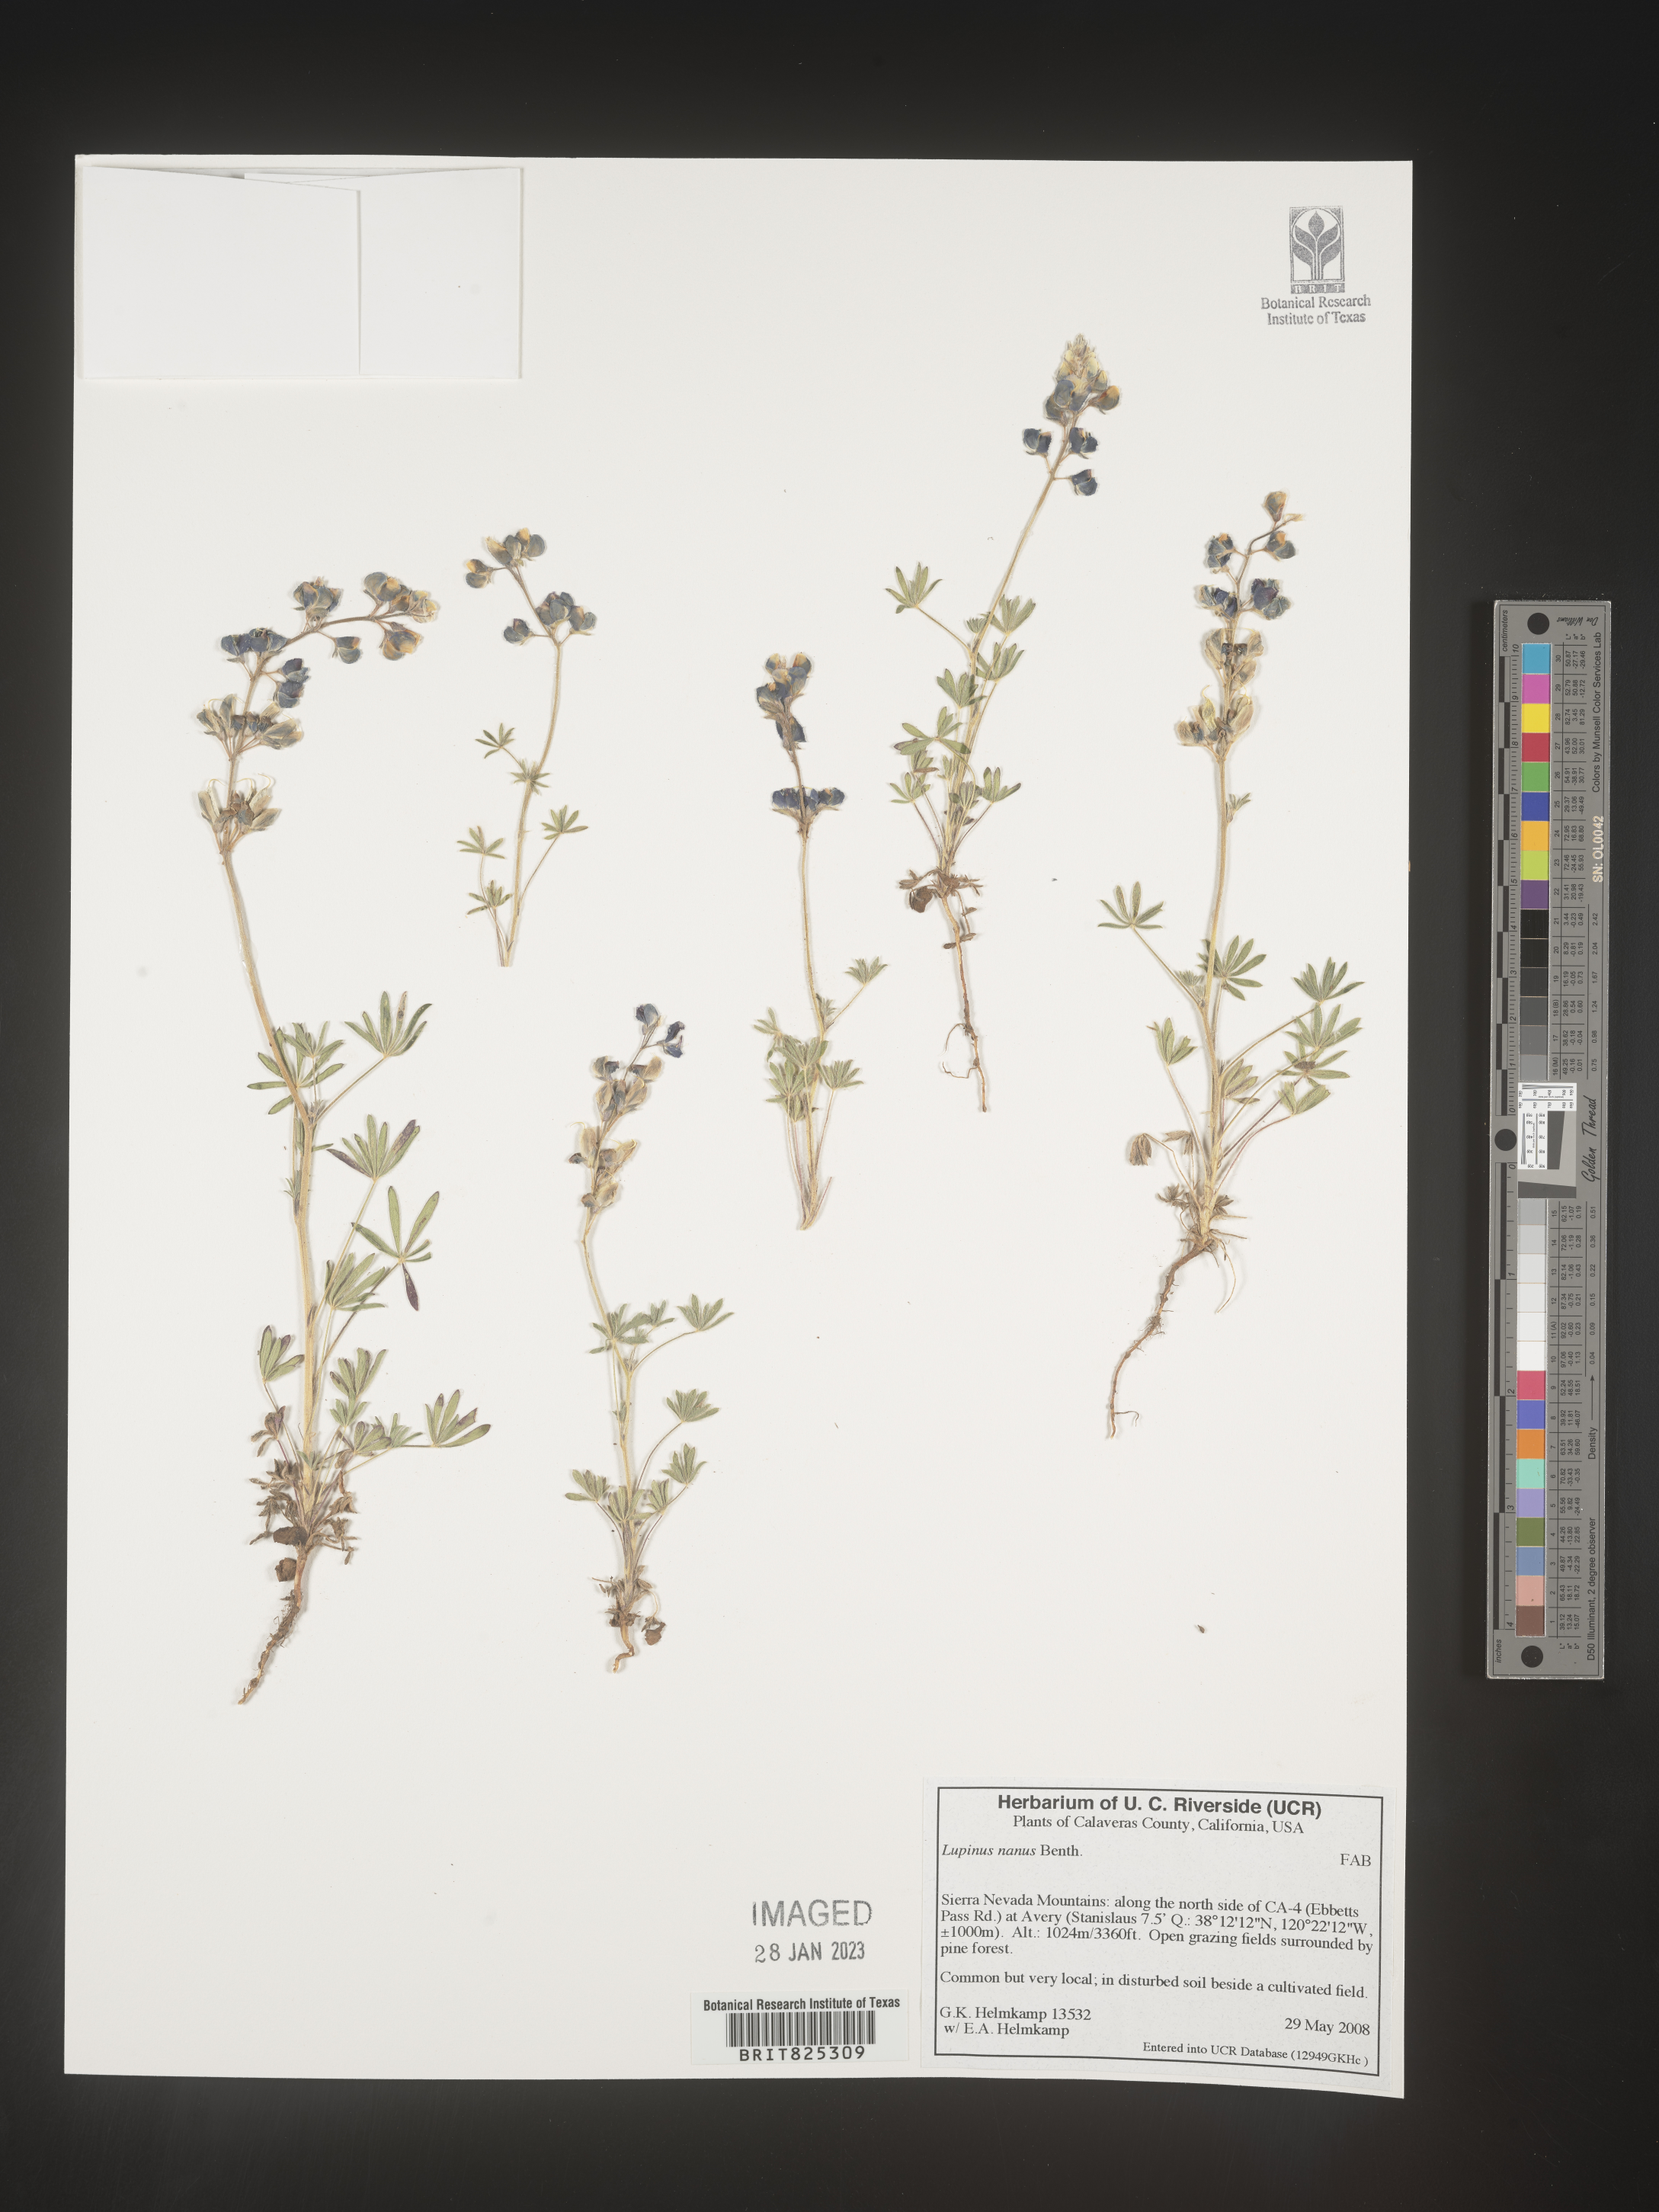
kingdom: Plantae
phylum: Tracheophyta
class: Magnoliopsida
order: Fabales
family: Fabaceae
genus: Lupinus
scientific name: Lupinus nanus
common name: Orean blue lupin
